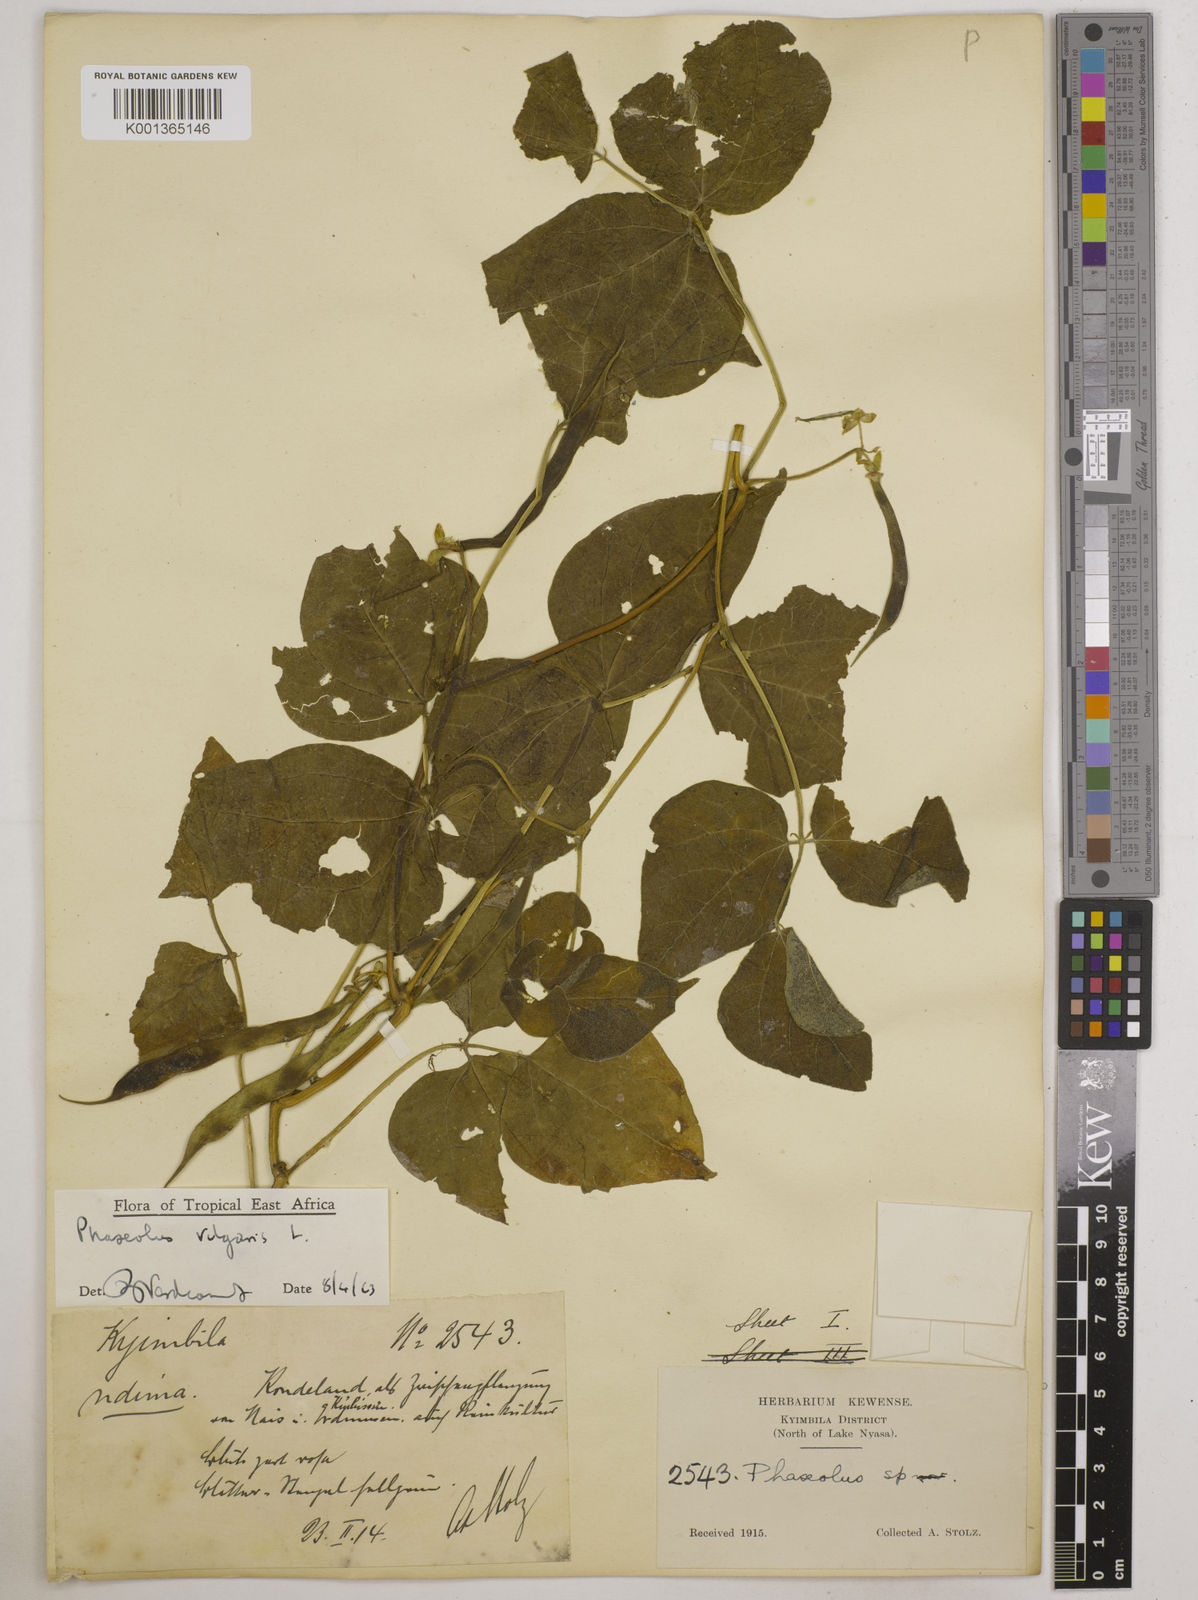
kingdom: Plantae
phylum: Tracheophyta
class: Magnoliopsida
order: Fabales
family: Fabaceae
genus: Phaseolus
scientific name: Phaseolus vulgaris
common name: Bean
